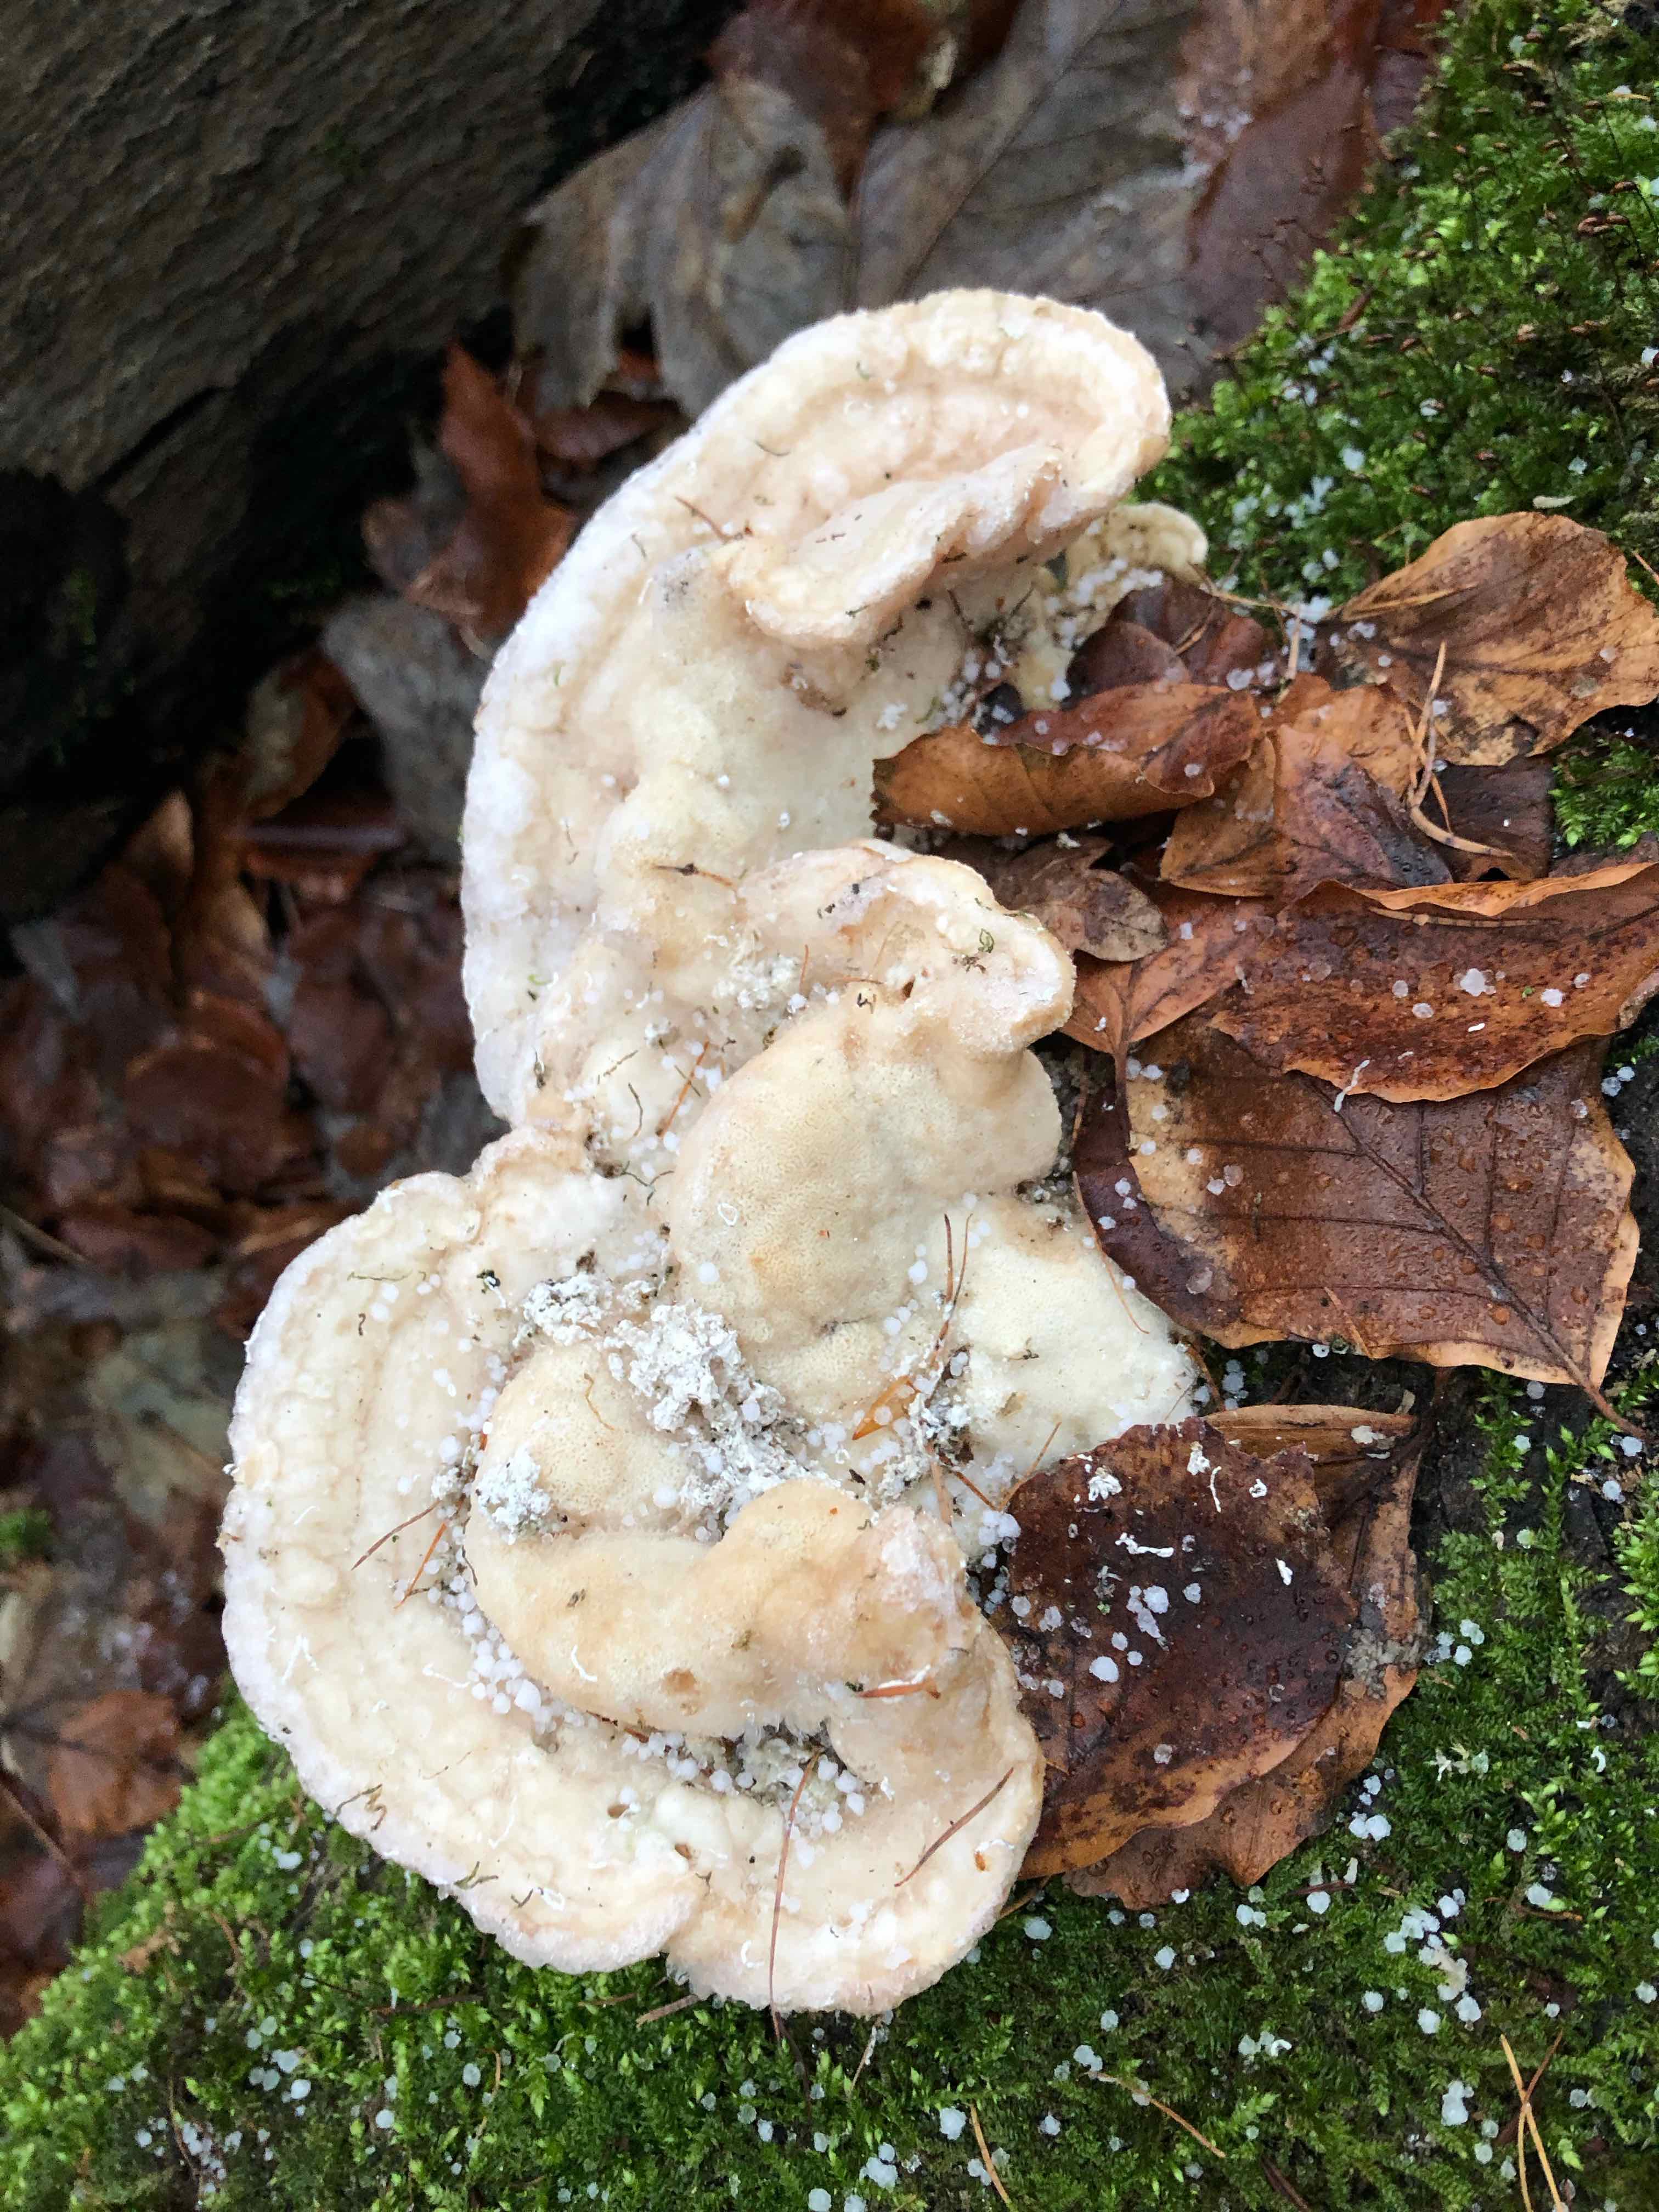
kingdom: Fungi
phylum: Basidiomycota
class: Agaricomycetes
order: Polyporales
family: Polyporaceae
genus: Trametes
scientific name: Trametes gibbosa
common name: puklet læderporesvamp
